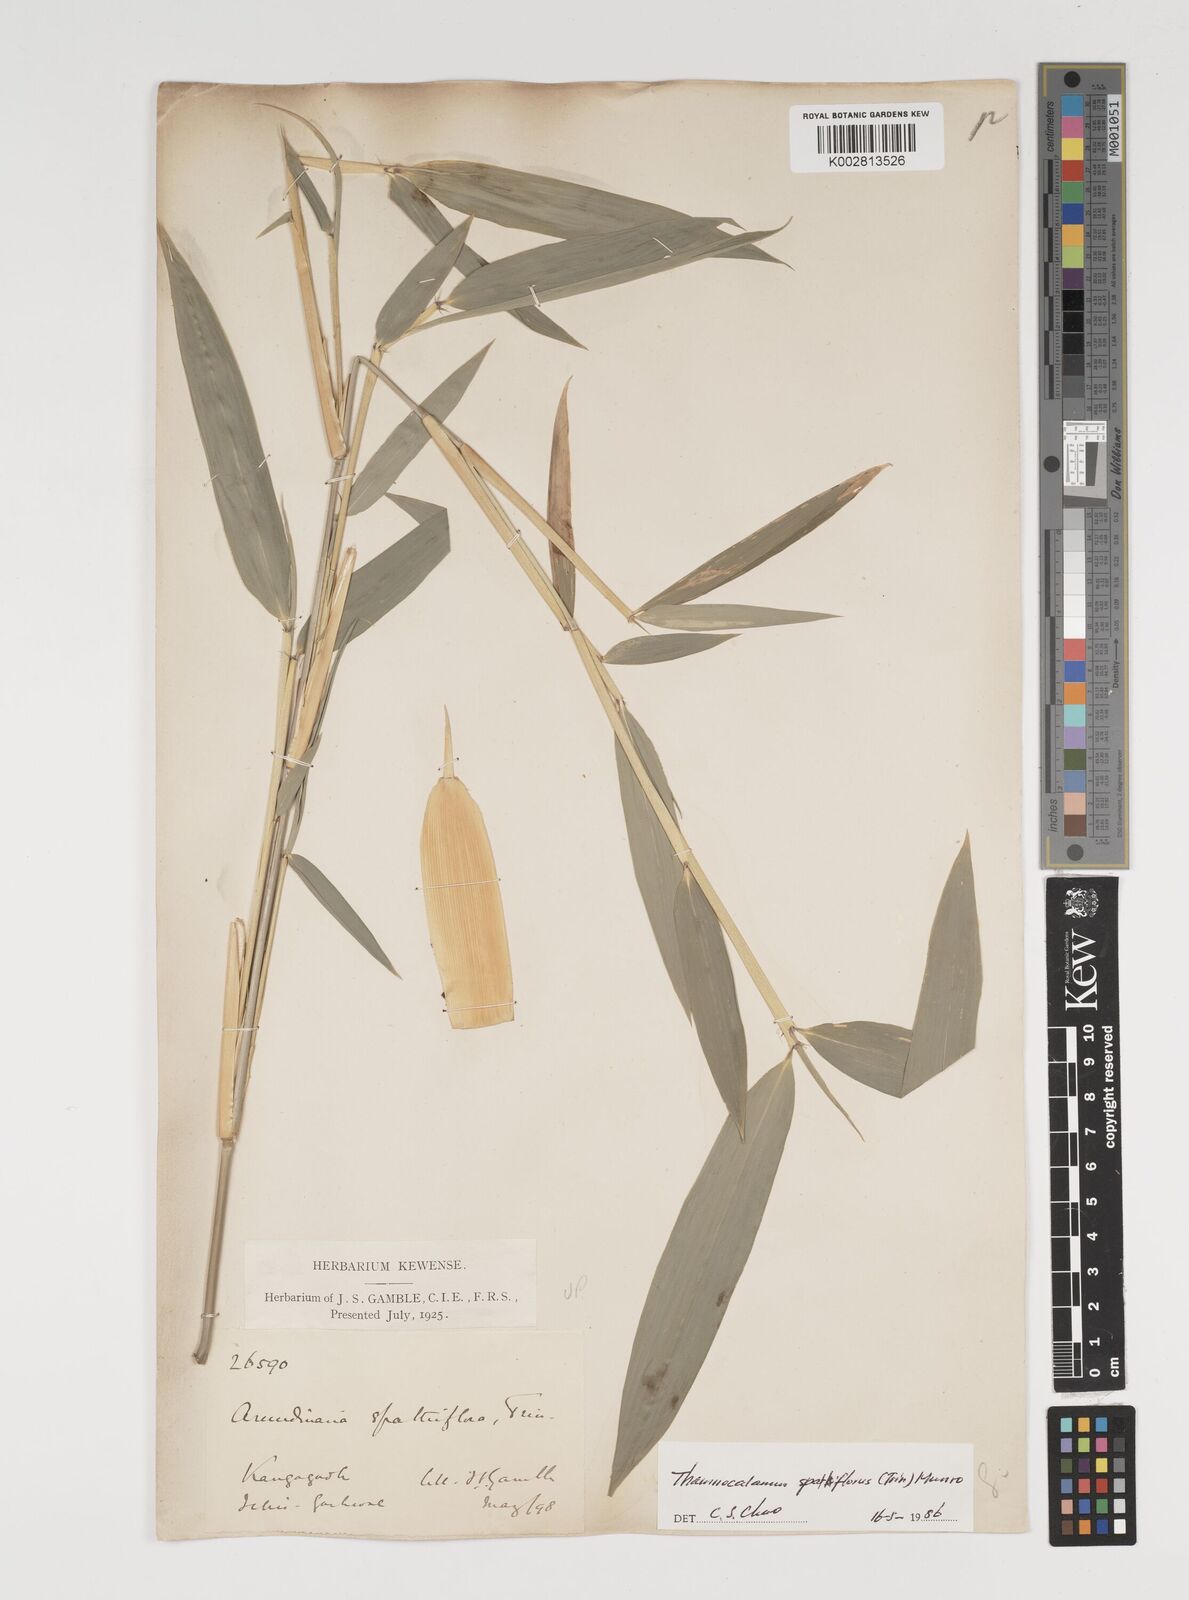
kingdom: Plantae
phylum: Tracheophyta
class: Liliopsida
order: Poales
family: Poaceae
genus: Thamnocalamus
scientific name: Thamnocalamus spathiflorus
